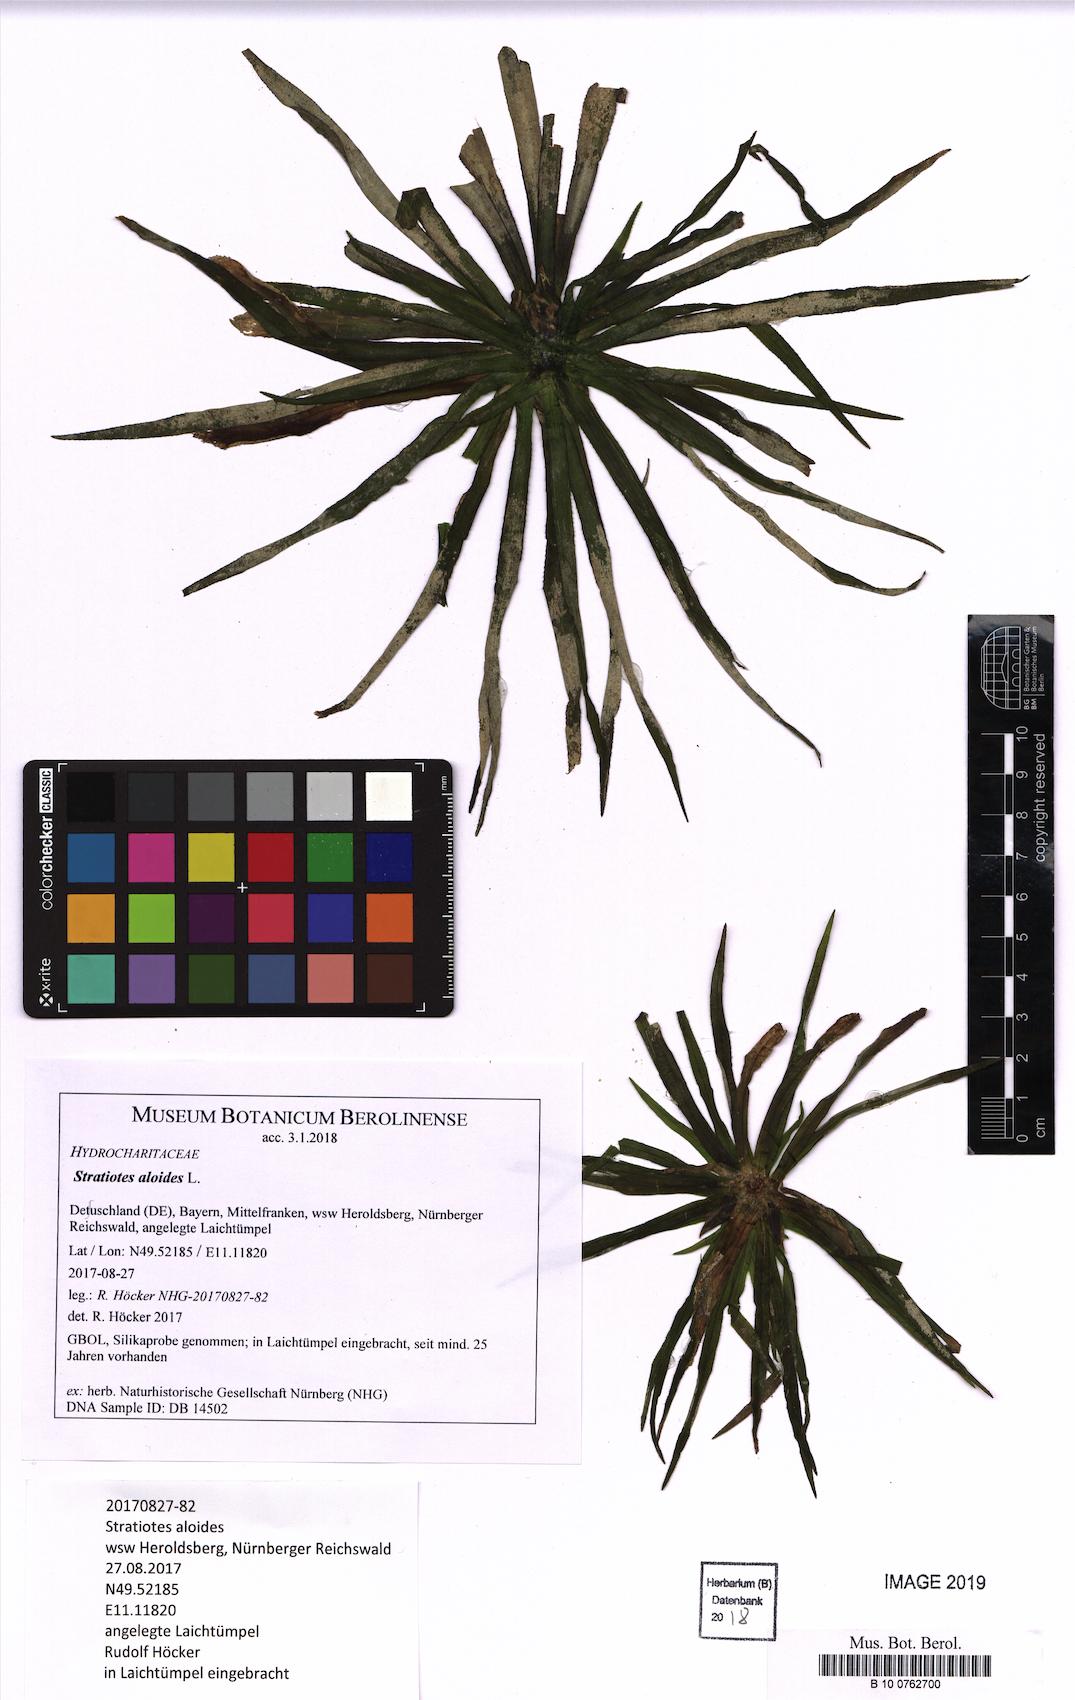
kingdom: Plantae
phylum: Tracheophyta
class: Liliopsida
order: Alismatales
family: Hydrocharitaceae
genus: Stratiotes
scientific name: Stratiotes aloides
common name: Water-soldier
